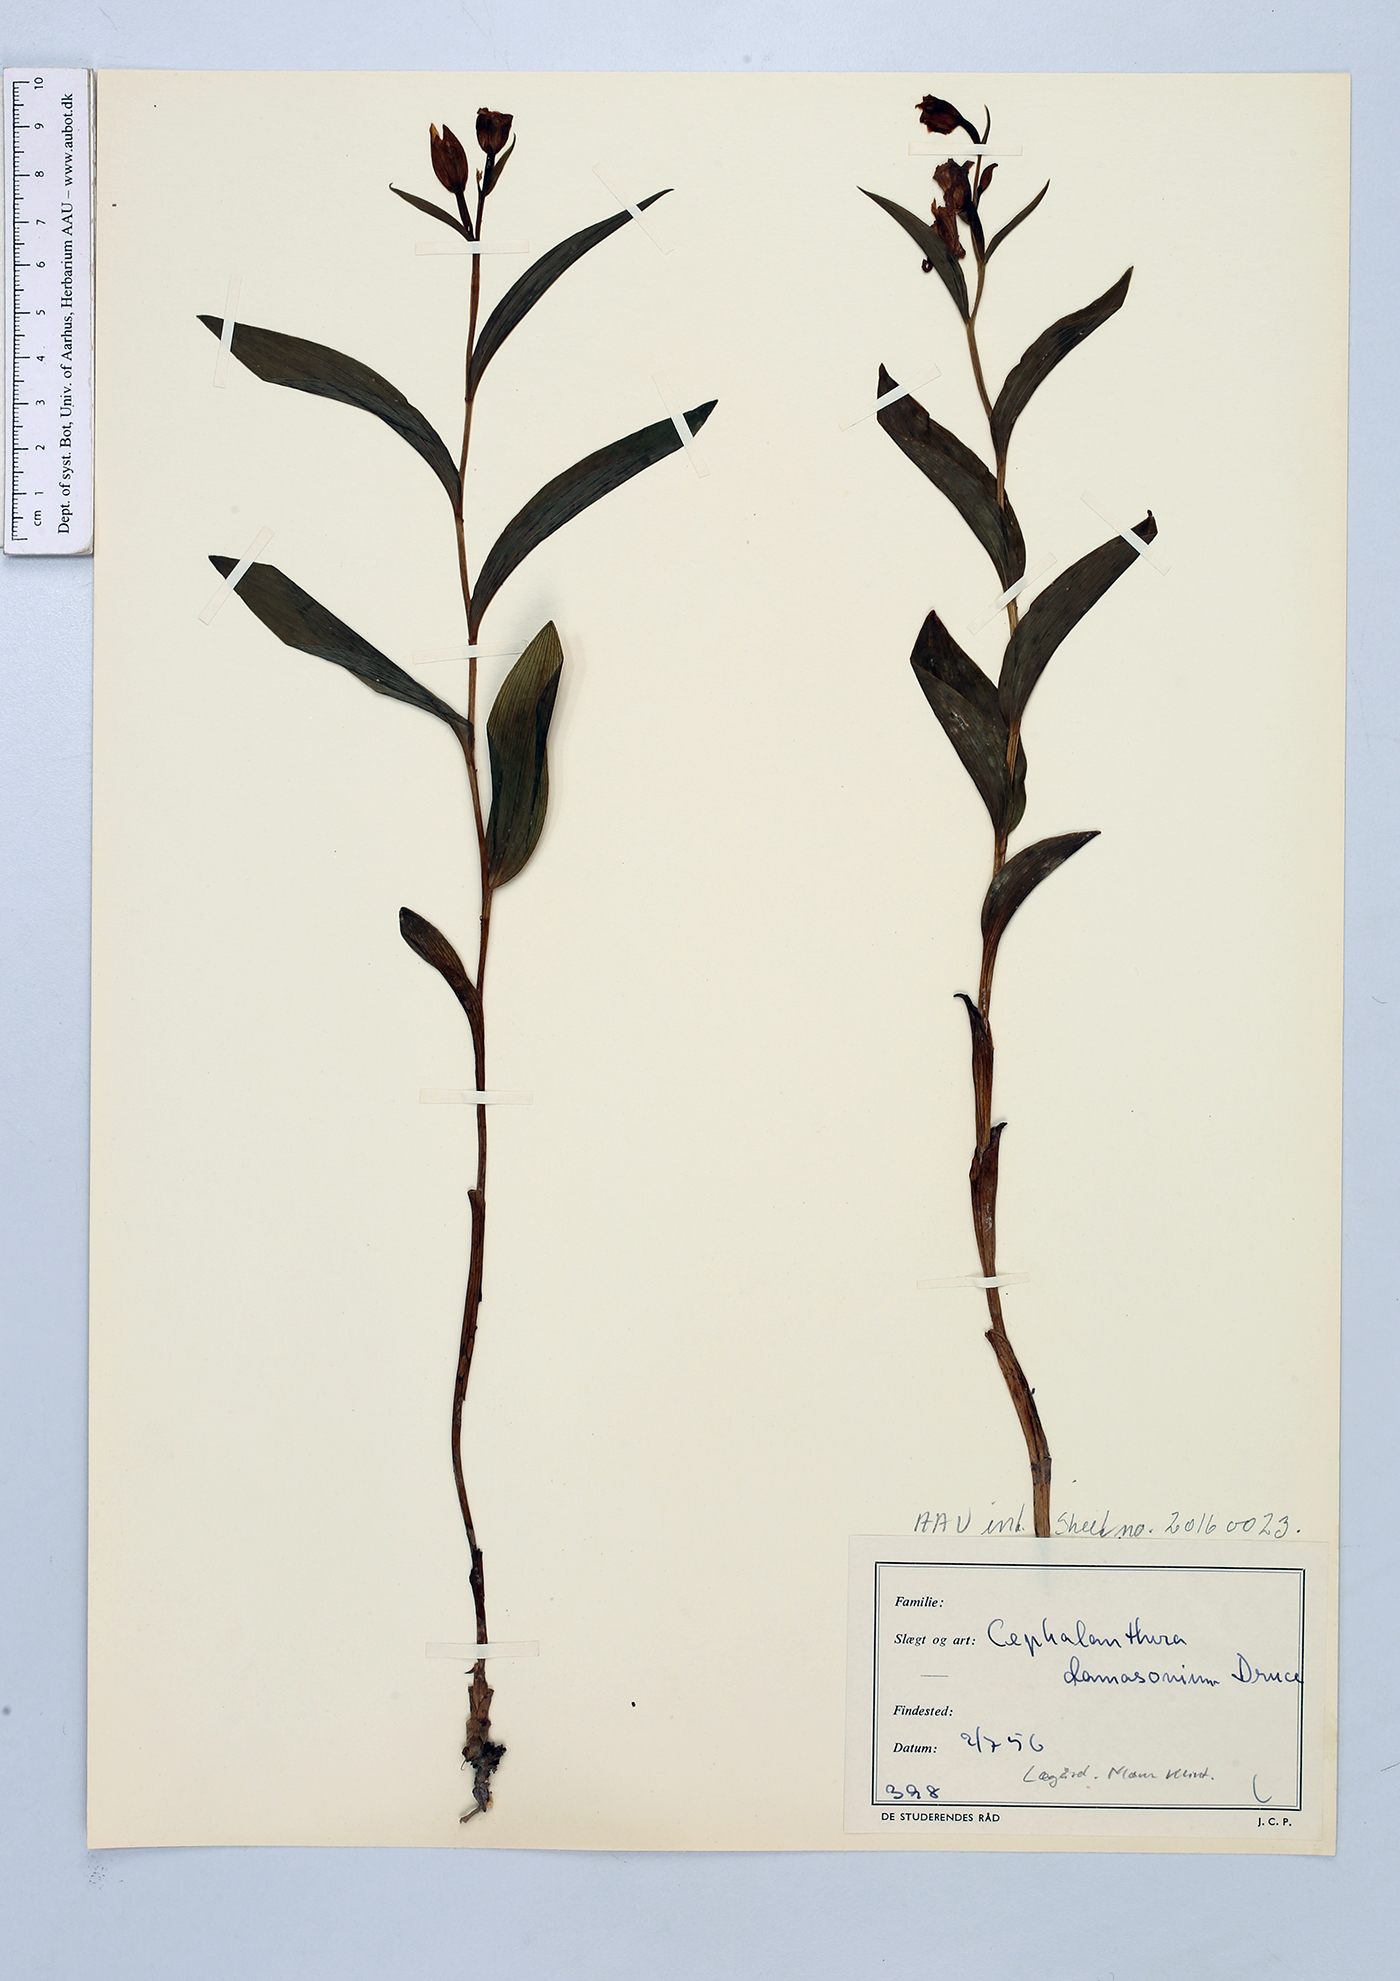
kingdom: Plantae
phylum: Tracheophyta
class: Liliopsida
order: Asparagales
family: Orchidaceae
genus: Cephalanthera
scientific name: Cephalanthera damasonium
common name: White helleborine
